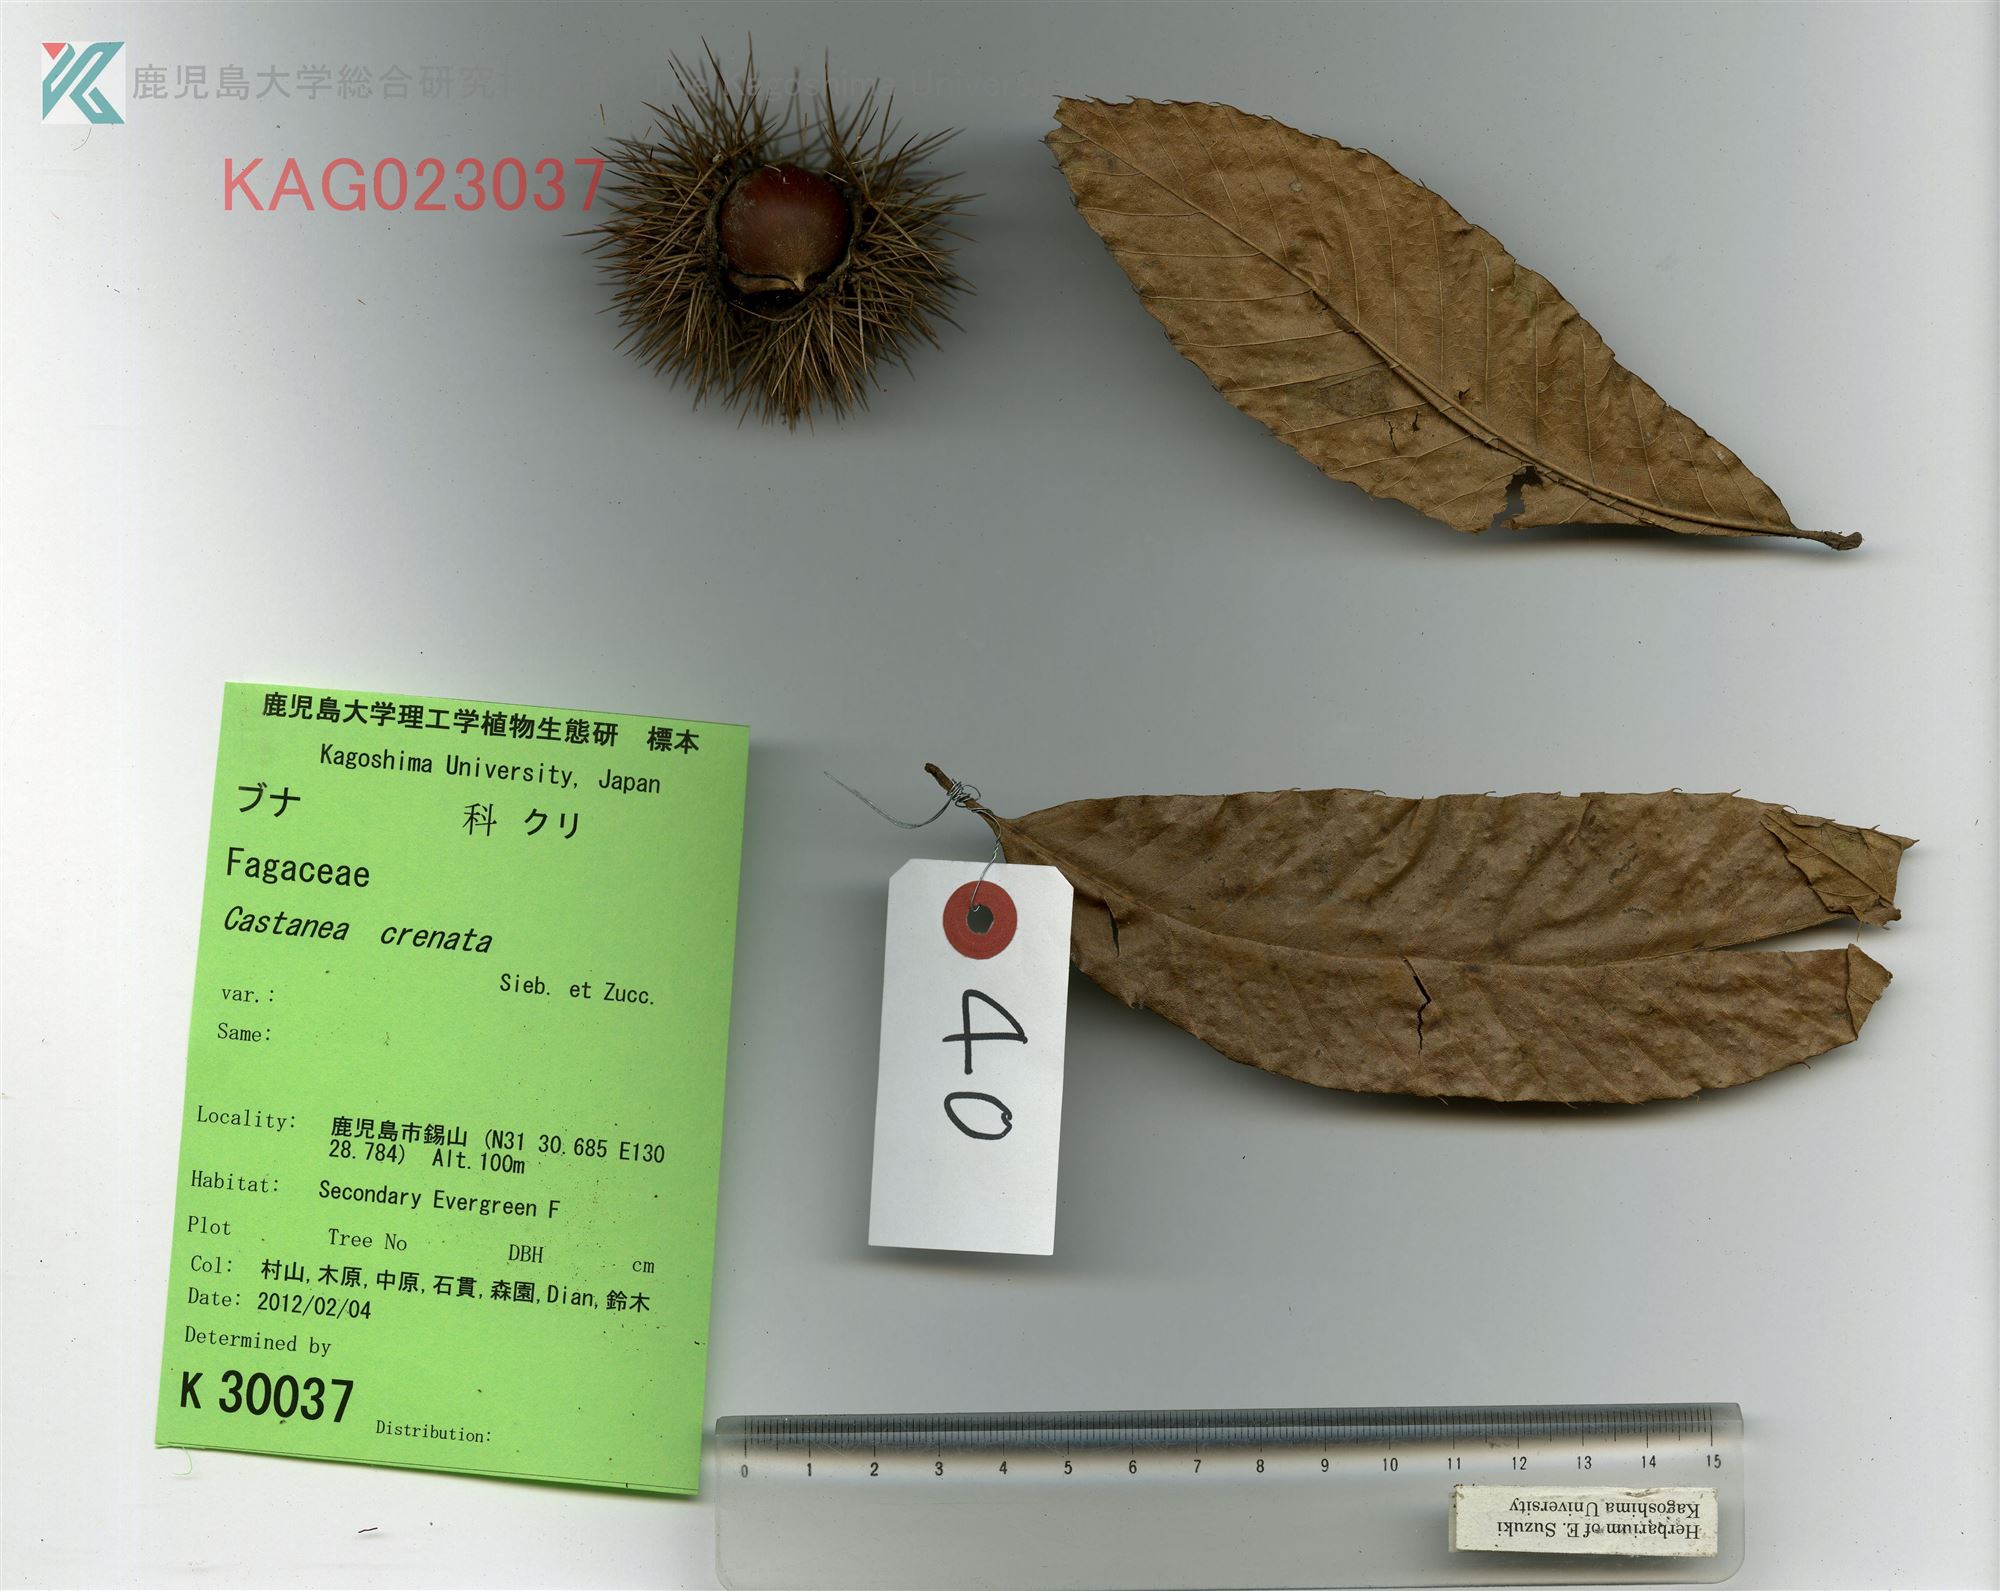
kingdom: Plantae
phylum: Tracheophyta
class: Magnoliopsida
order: Fagales
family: Fagaceae
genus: Castanea
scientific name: Castanea crenata
